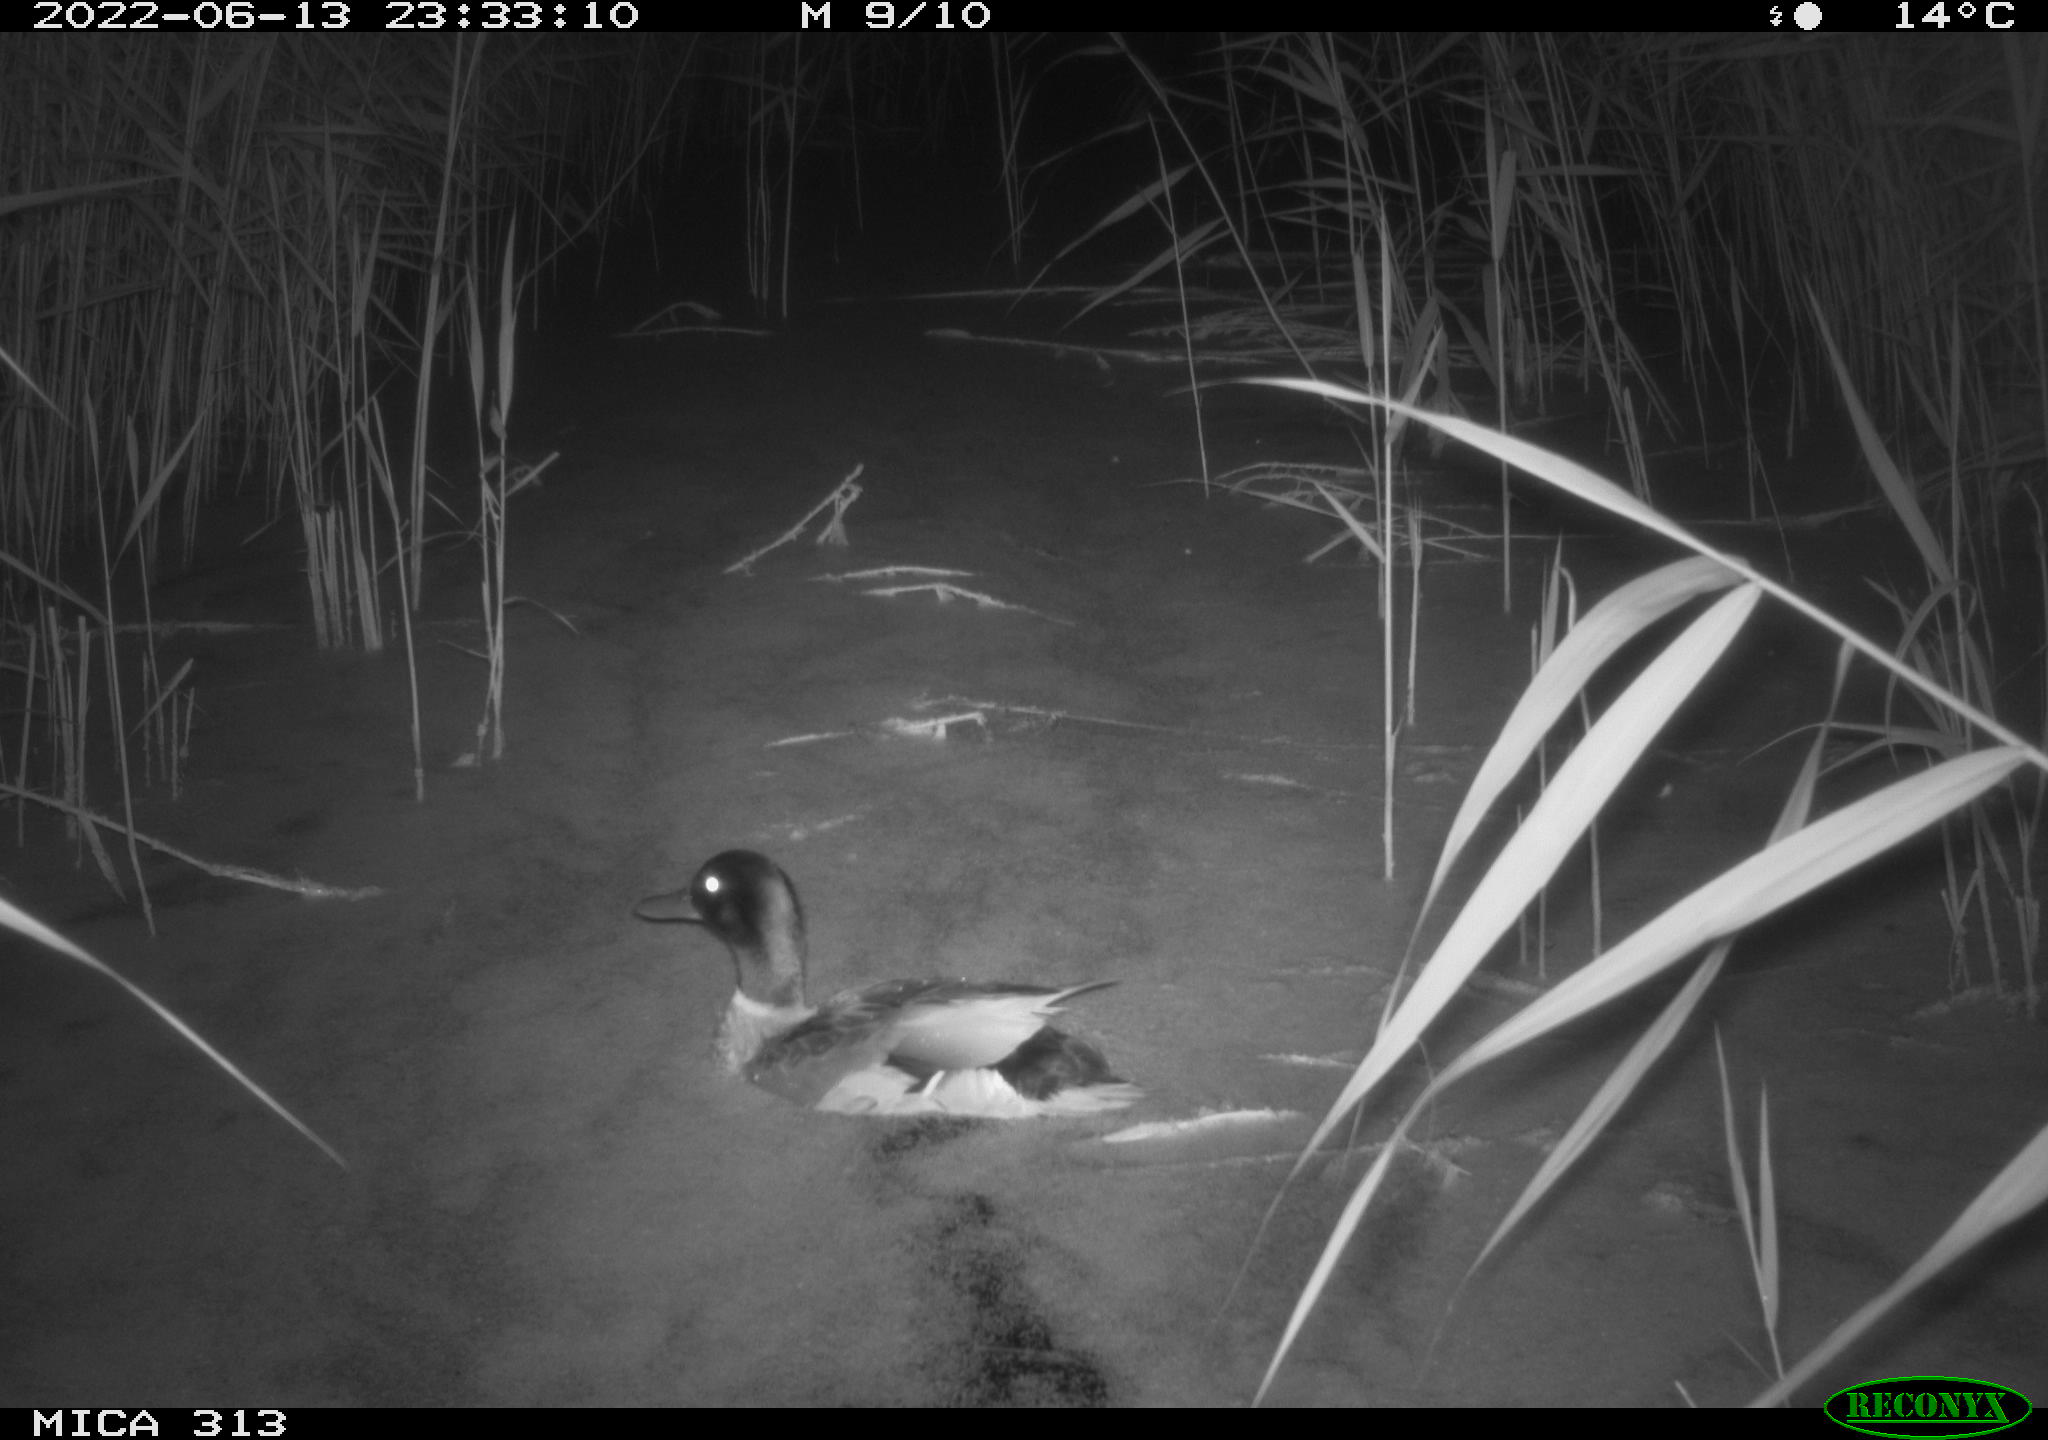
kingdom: Animalia
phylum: Chordata
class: Aves
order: Anseriformes
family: Anatidae
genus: Anas
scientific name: Anas platyrhynchos
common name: Mallard
